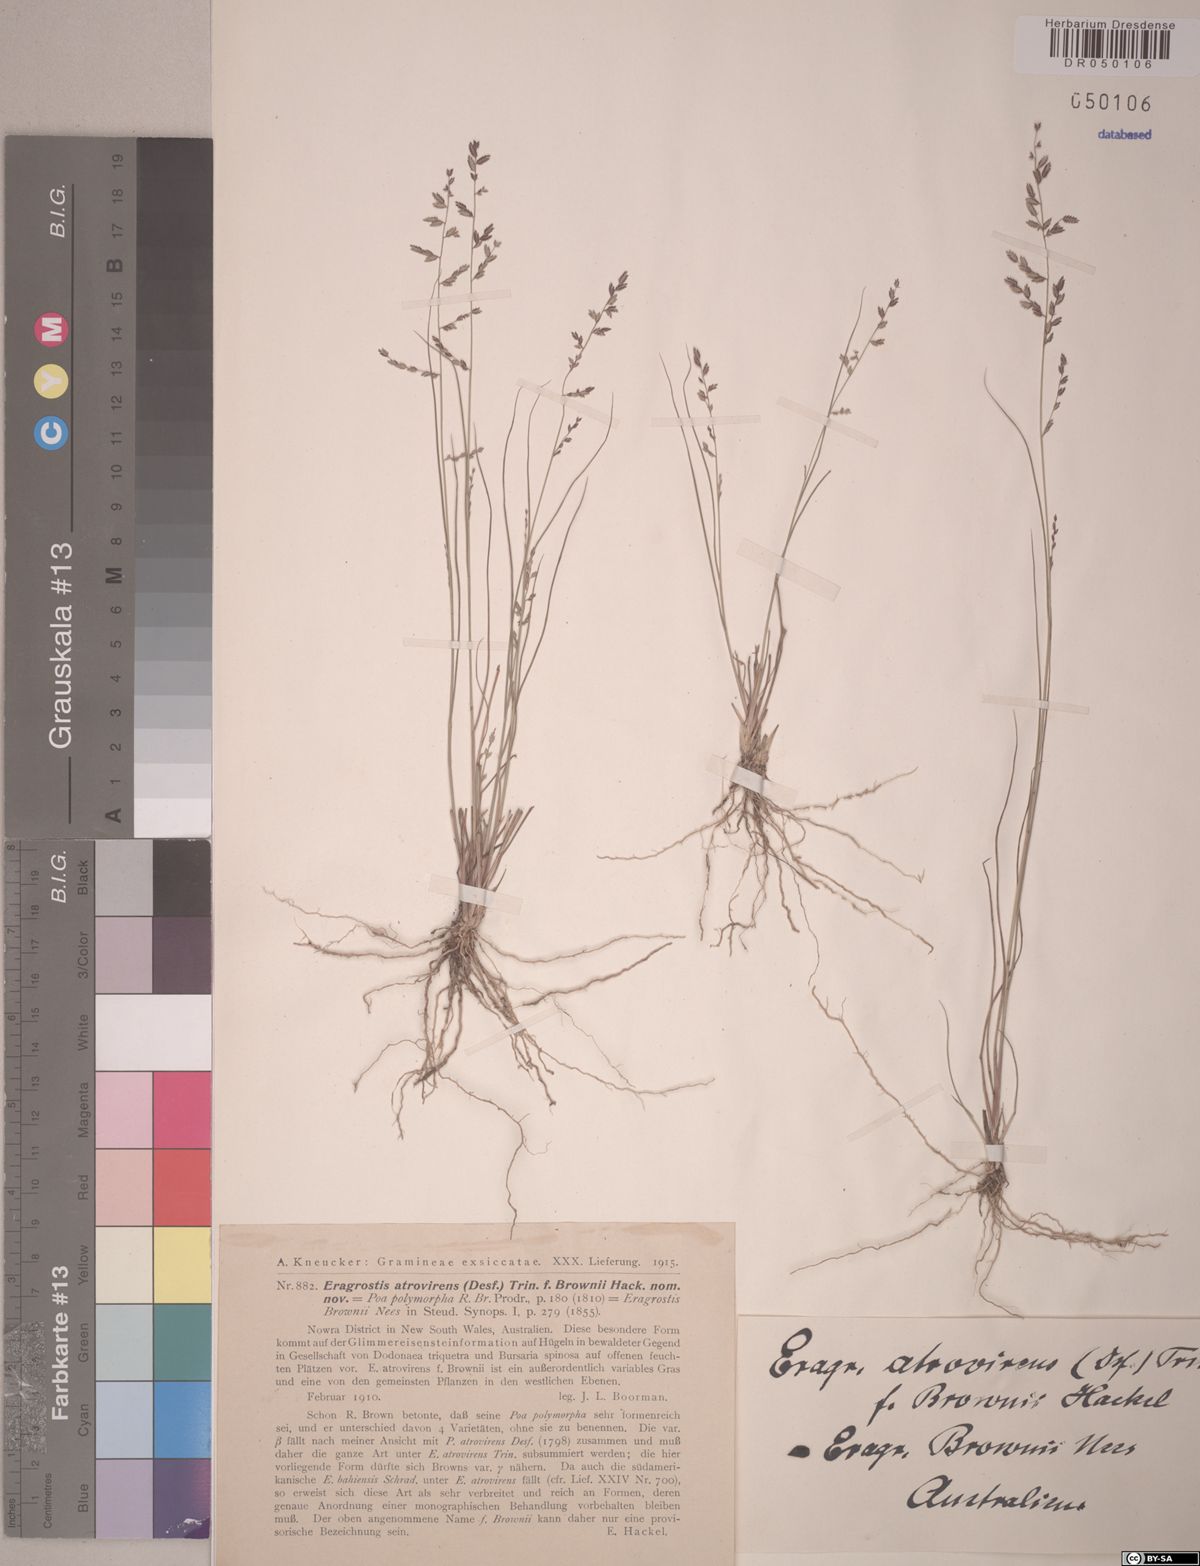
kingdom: Plantae
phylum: Tracheophyta
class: Liliopsida
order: Poales
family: Poaceae
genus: Eragrostis
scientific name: Eragrostis brownii
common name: Lovegrass
